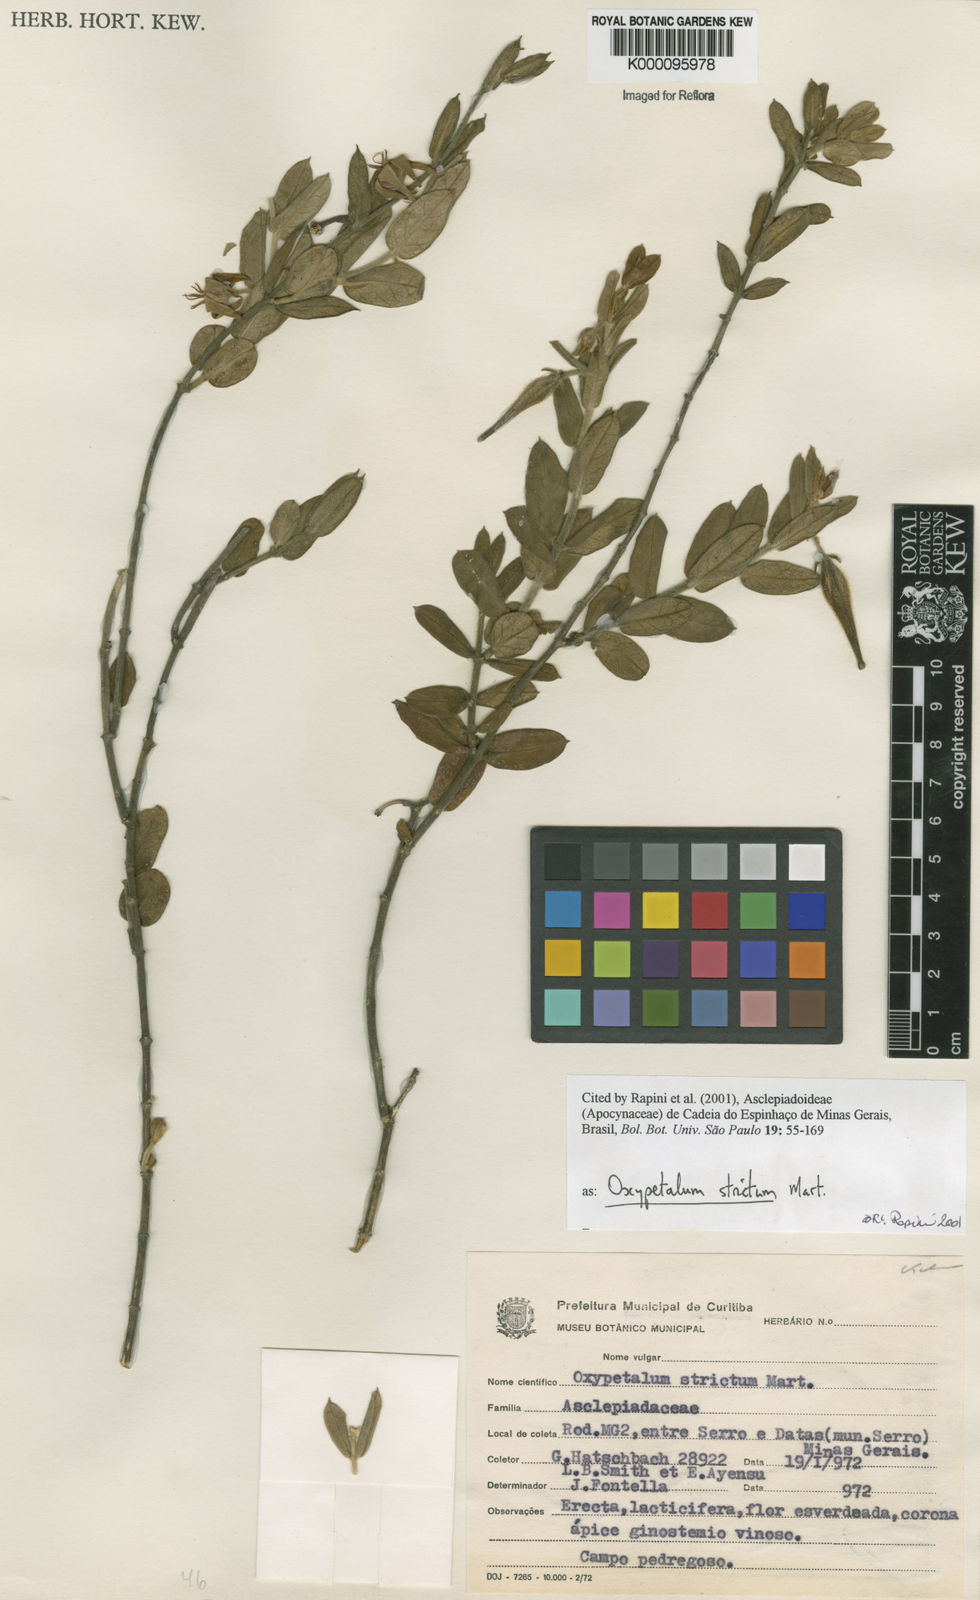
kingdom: Plantae
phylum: Tracheophyta
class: Magnoliopsida
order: Gentianales
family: Apocynaceae
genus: Oxypetalum
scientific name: Oxypetalum strictum
